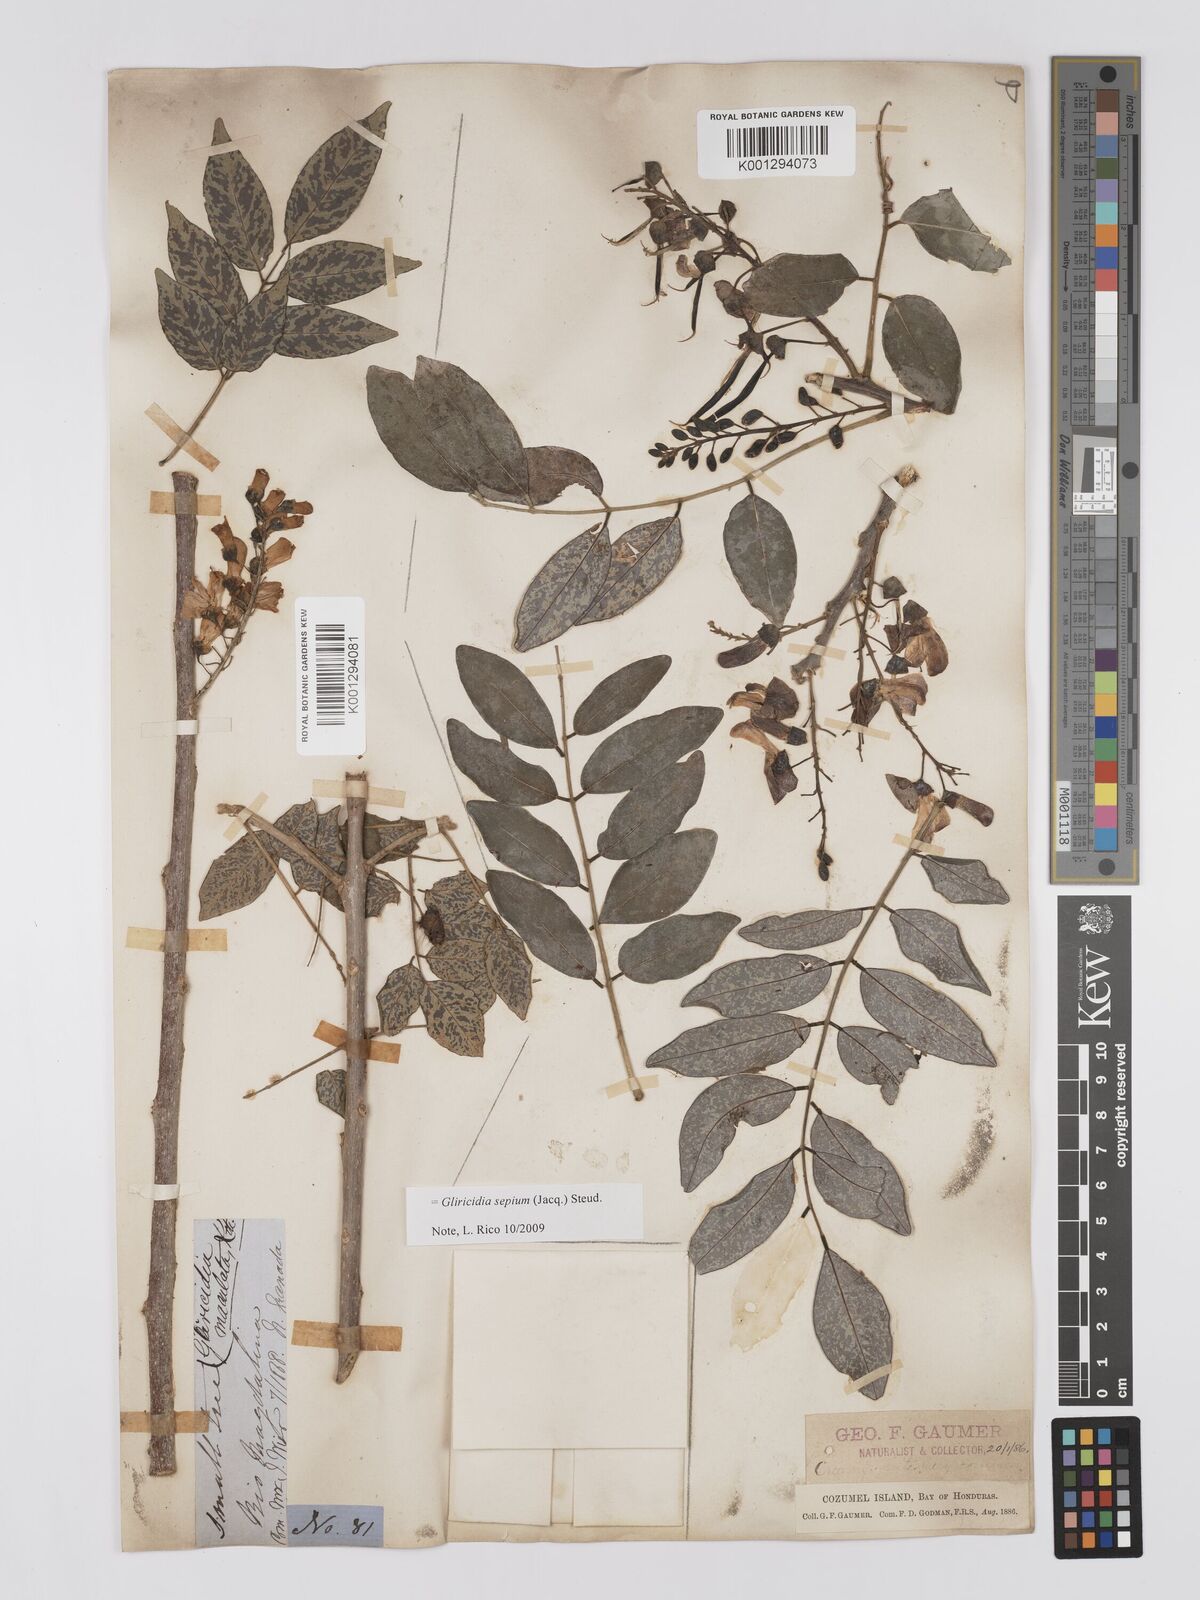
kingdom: Plantae
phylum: Tracheophyta
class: Magnoliopsida
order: Fabales
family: Fabaceae
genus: Gliricidia
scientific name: Gliricidia sepium
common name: Quickstick
